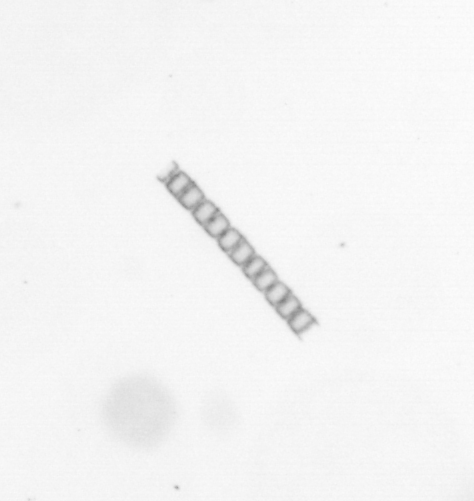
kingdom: Chromista
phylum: Ochrophyta
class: Bacillariophyceae
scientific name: Bacillariophyceae
